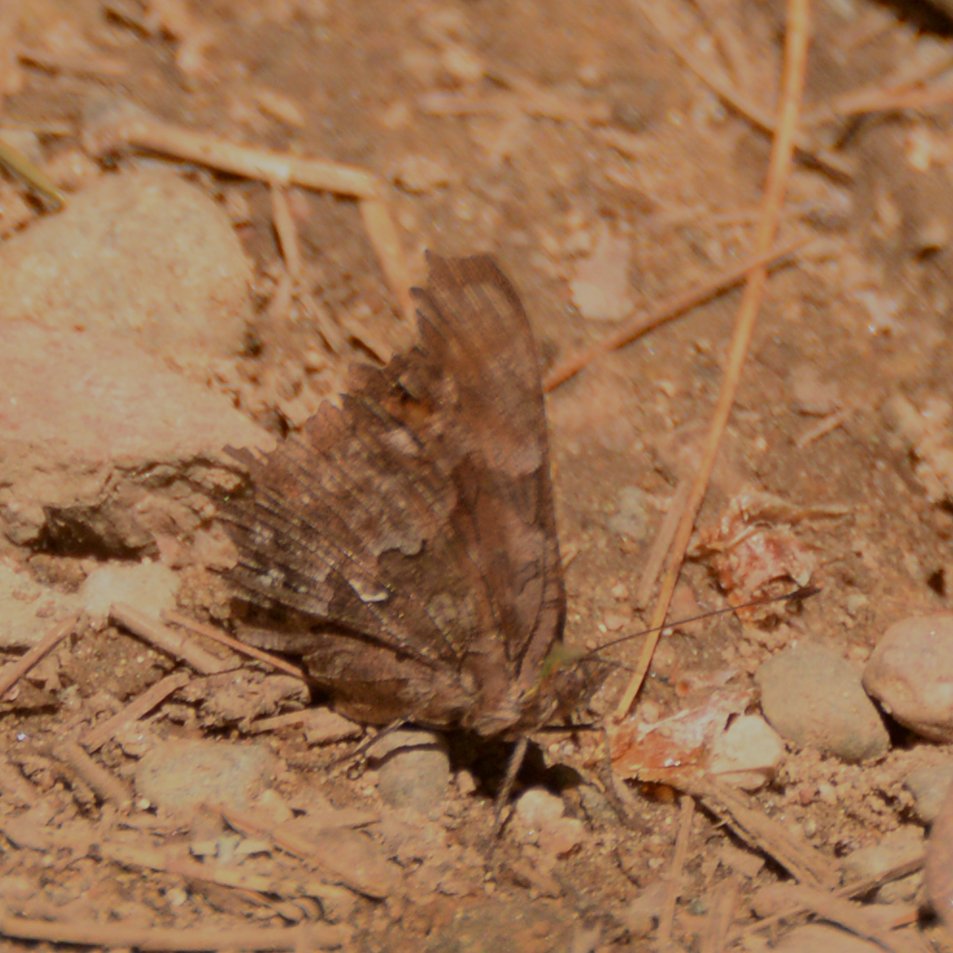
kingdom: Animalia
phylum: Arthropoda
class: Insecta
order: Lepidoptera
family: Nymphalidae
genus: Polygonia
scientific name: Polygonia
